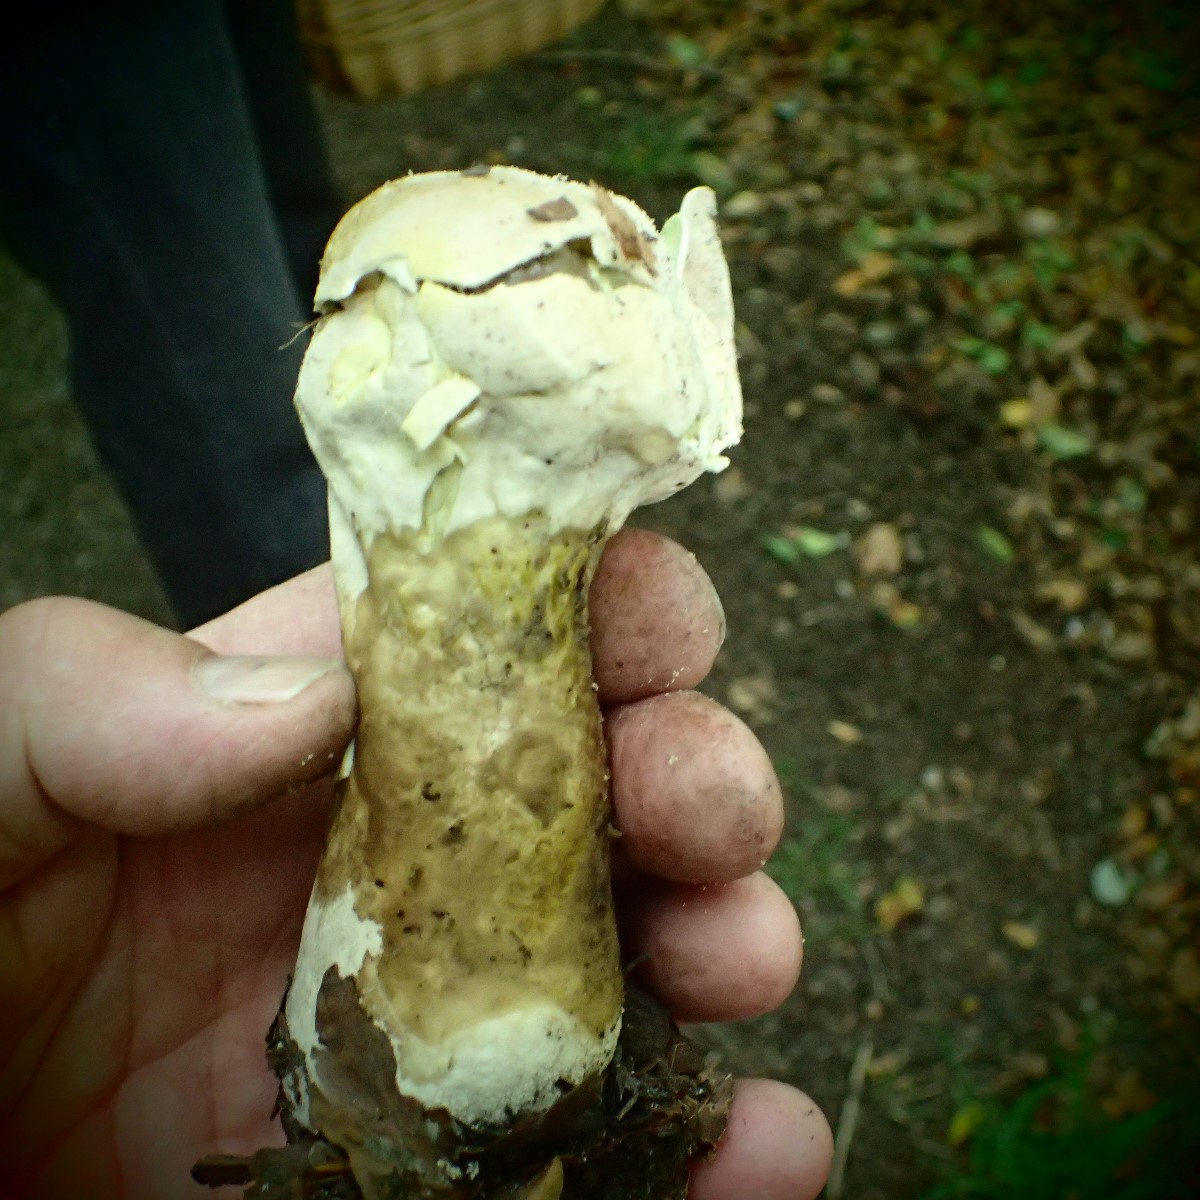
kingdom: Fungi
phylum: Basidiomycota
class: Agaricomycetes
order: Agaricales
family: Lycoperdaceae
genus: Lycoperdon
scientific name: Lycoperdon excipuliforme
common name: højstokket støvbold
